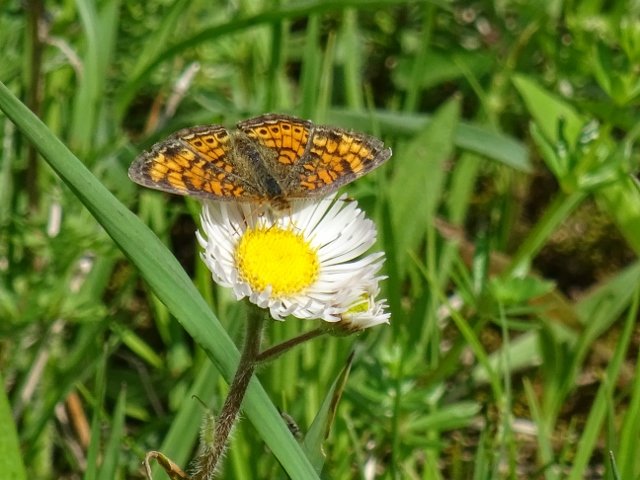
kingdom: Animalia
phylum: Arthropoda
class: Insecta
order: Lepidoptera
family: Nymphalidae
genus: Phyciodes
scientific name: Phyciodes tharos
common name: Northern Crescent
